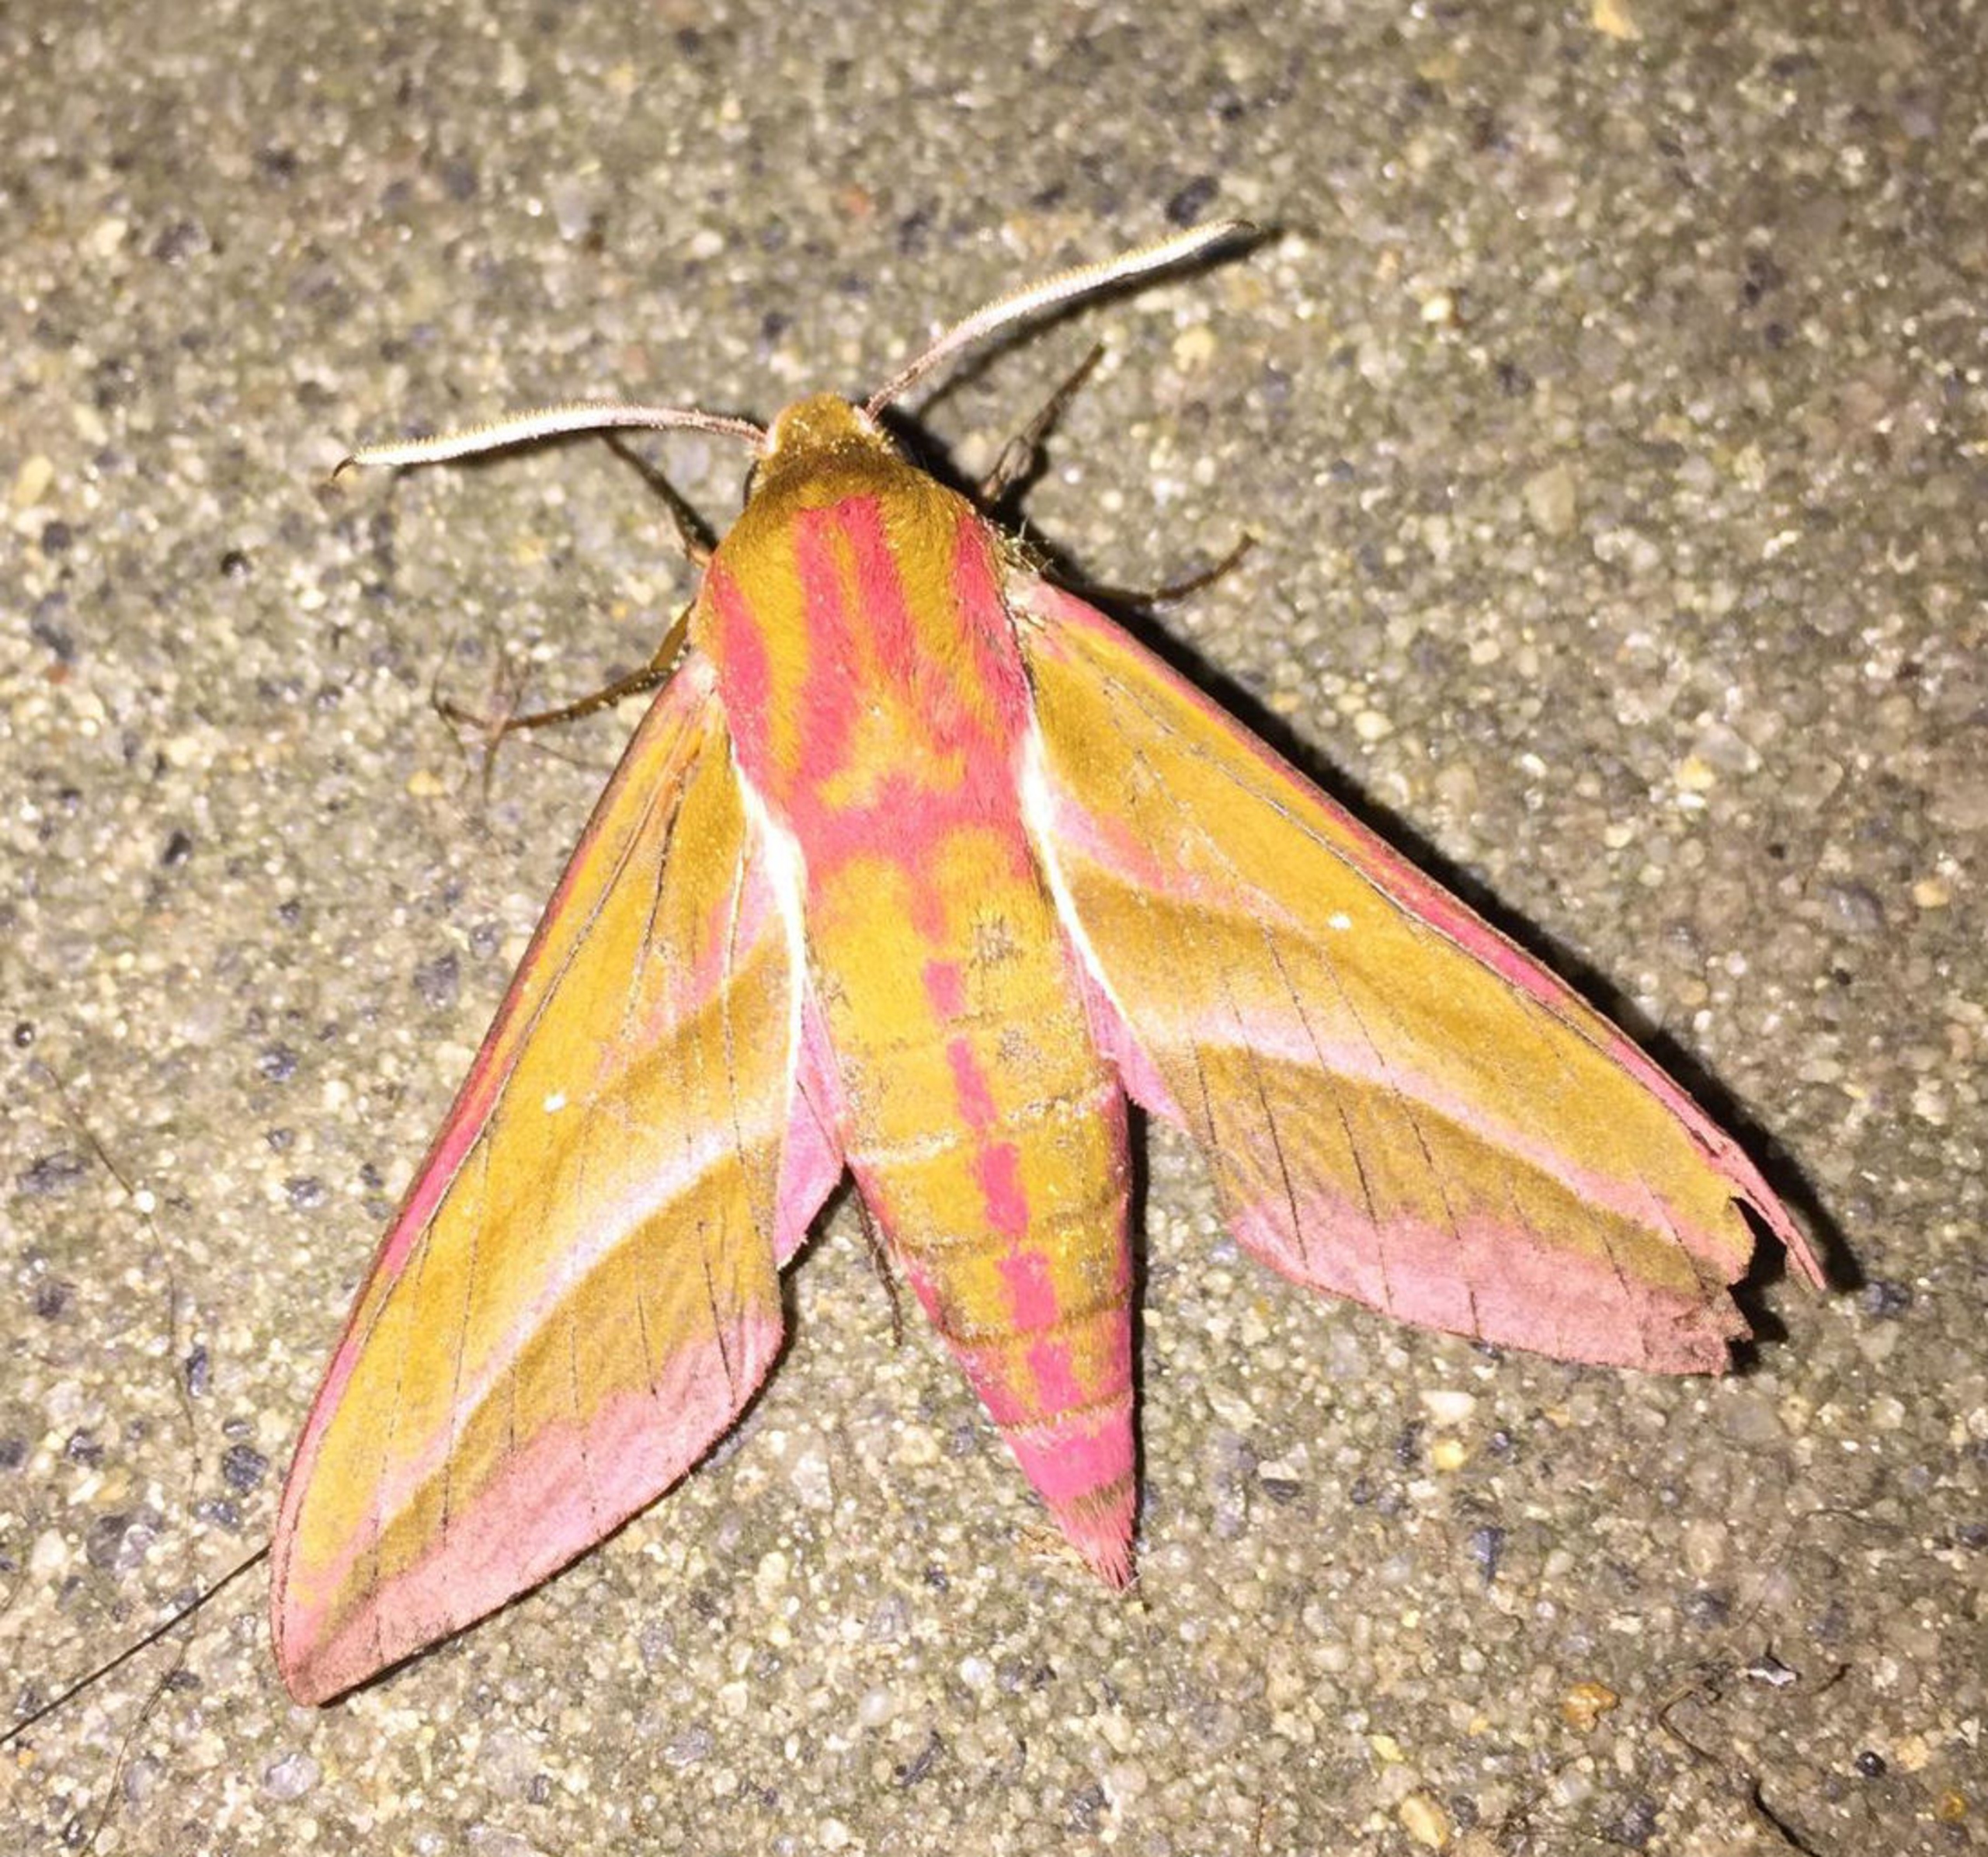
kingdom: Animalia
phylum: Arthropoda
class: Insecta
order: Lepidoptera
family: Sphingidae
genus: Deilephila
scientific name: Deilephila elpenor
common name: Dueurtsværmer
